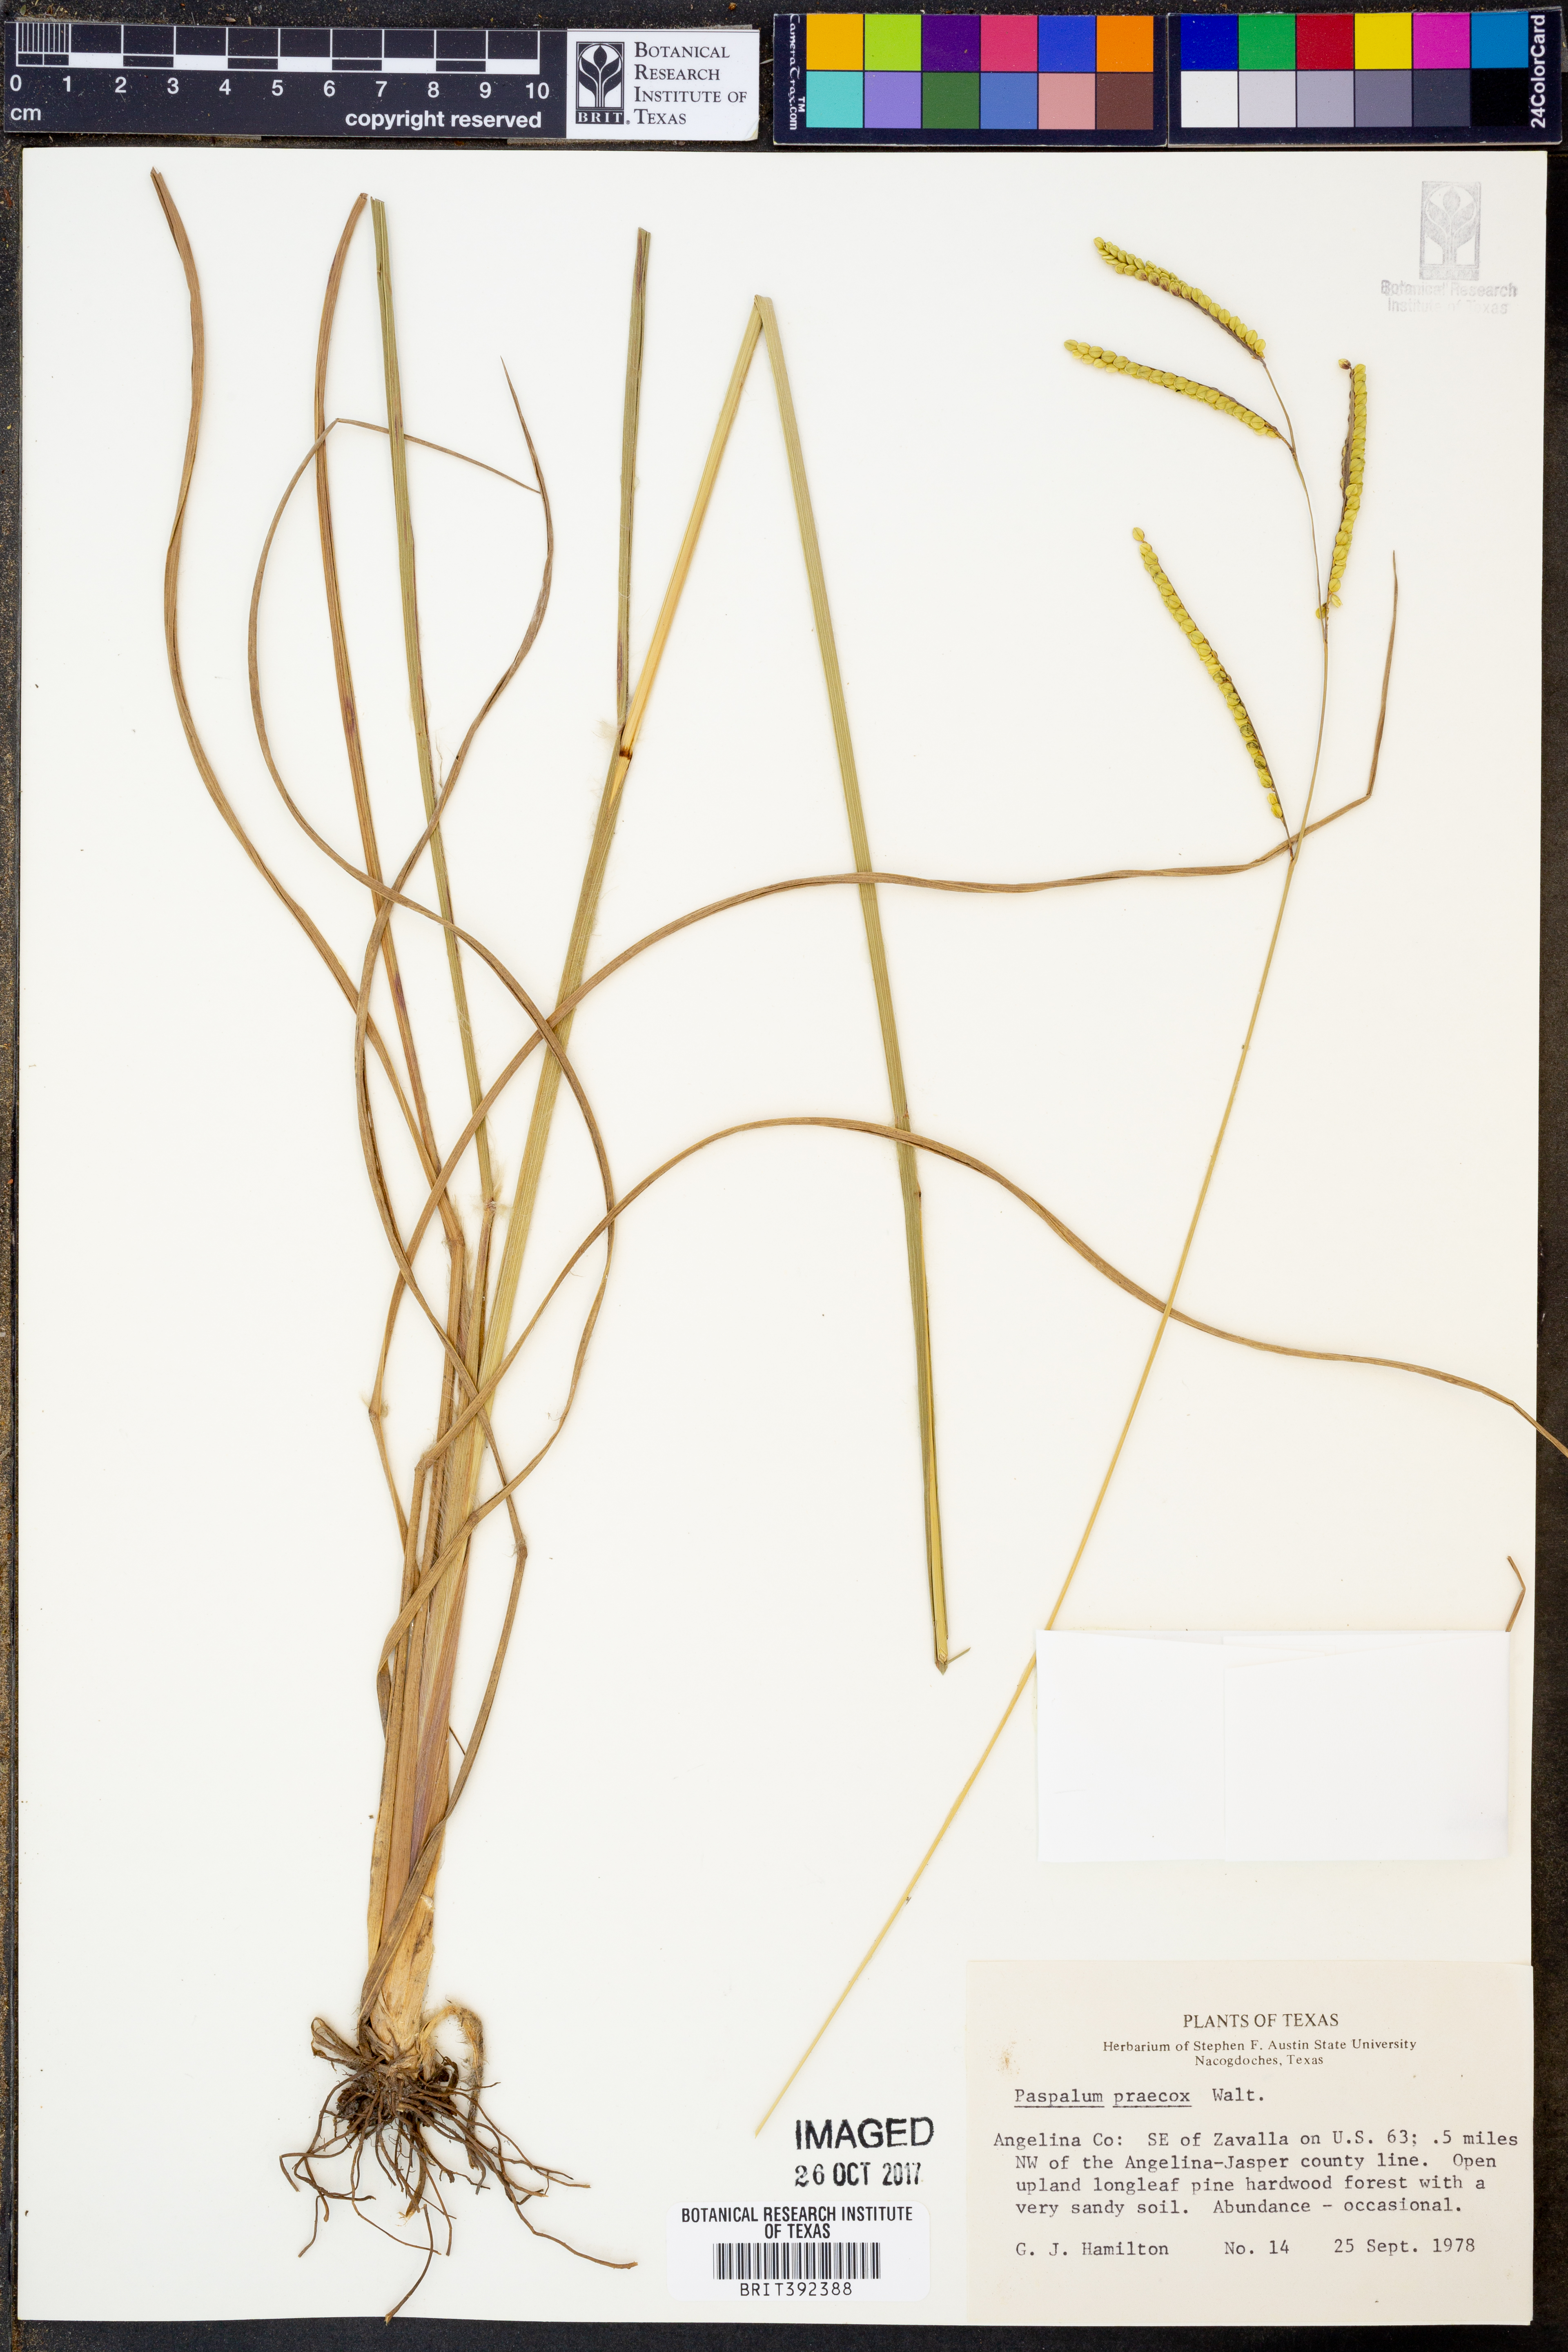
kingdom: Plantae
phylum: Tracheophyta
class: Liliopsida
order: Poales
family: Poaceae
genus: Paspalum
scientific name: Paspalum praecox
